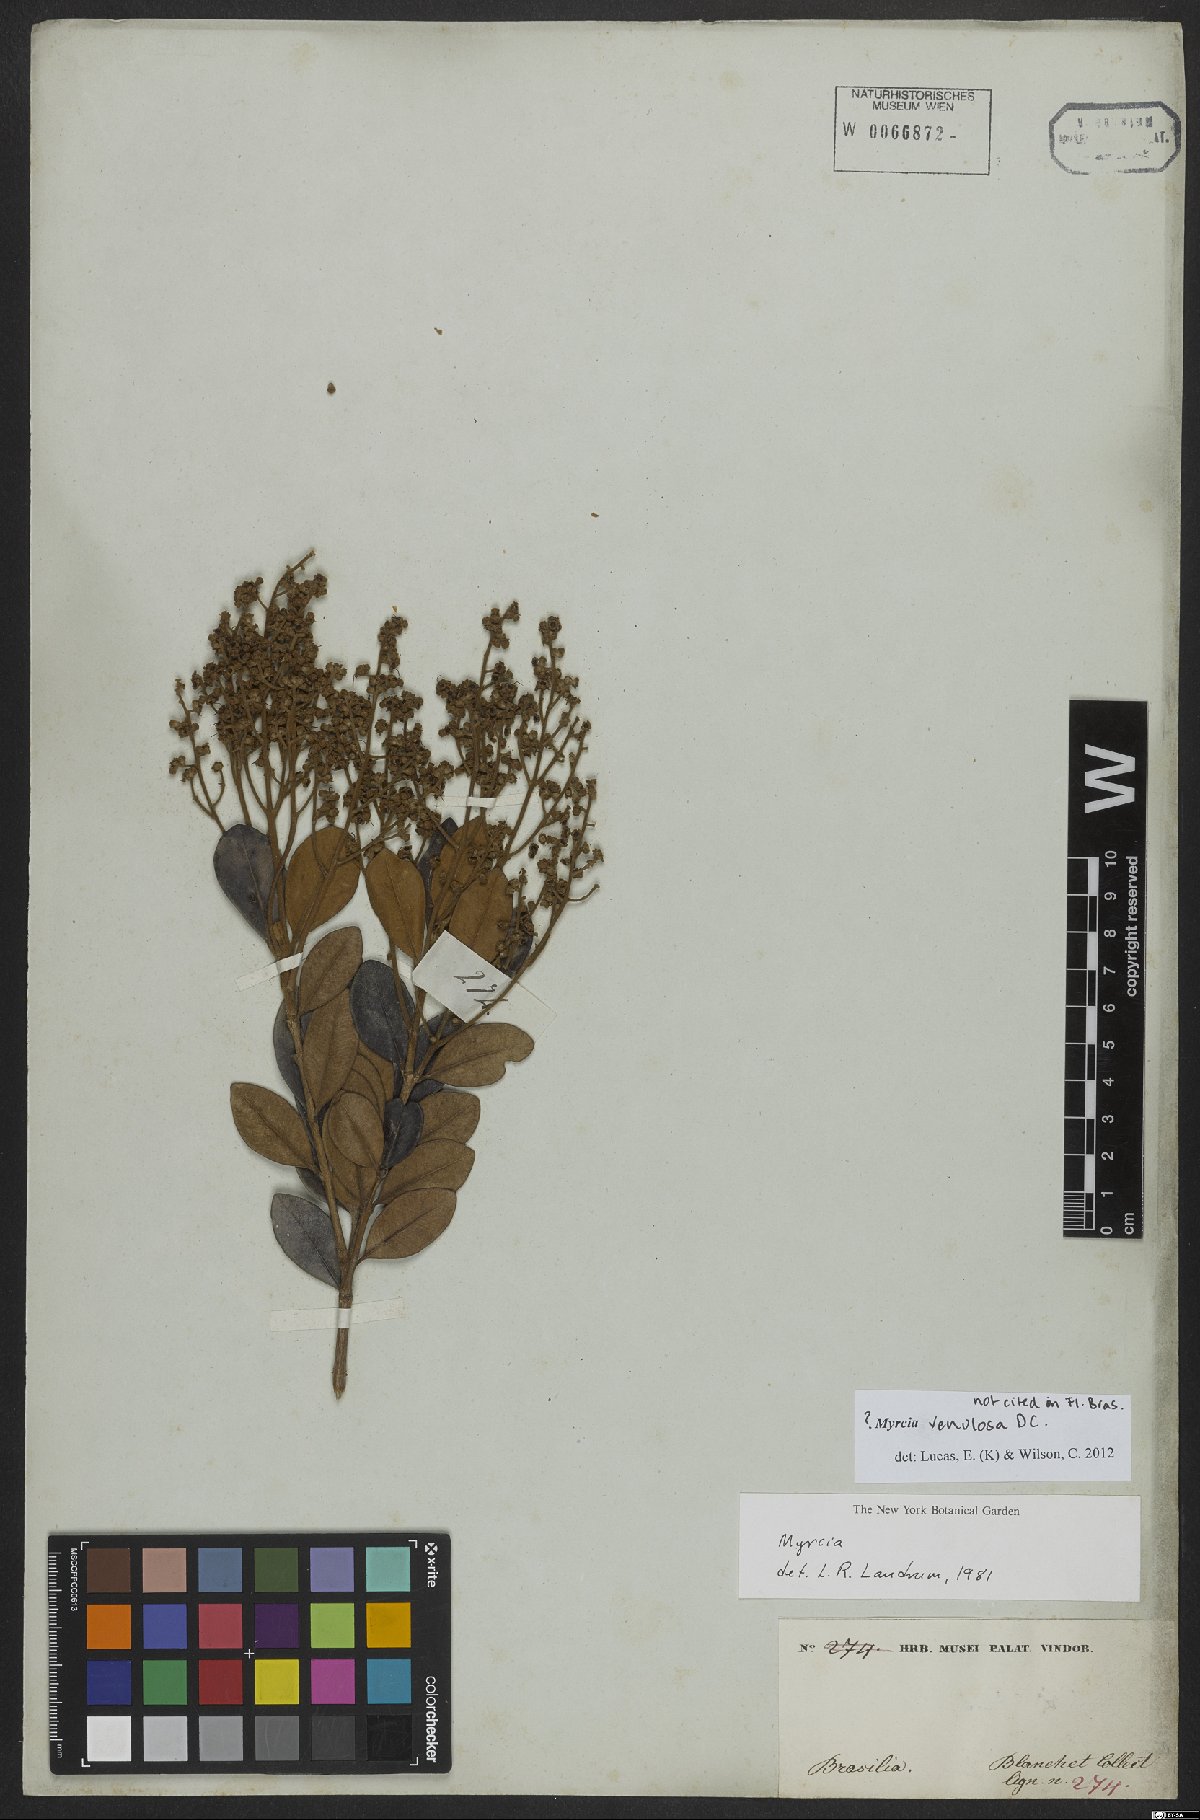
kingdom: Plantae
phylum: Tracheophyta
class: Magnoliopsida
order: Myrtales
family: Myrtaceae
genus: Myrcia
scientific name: Myrcia venulosa
